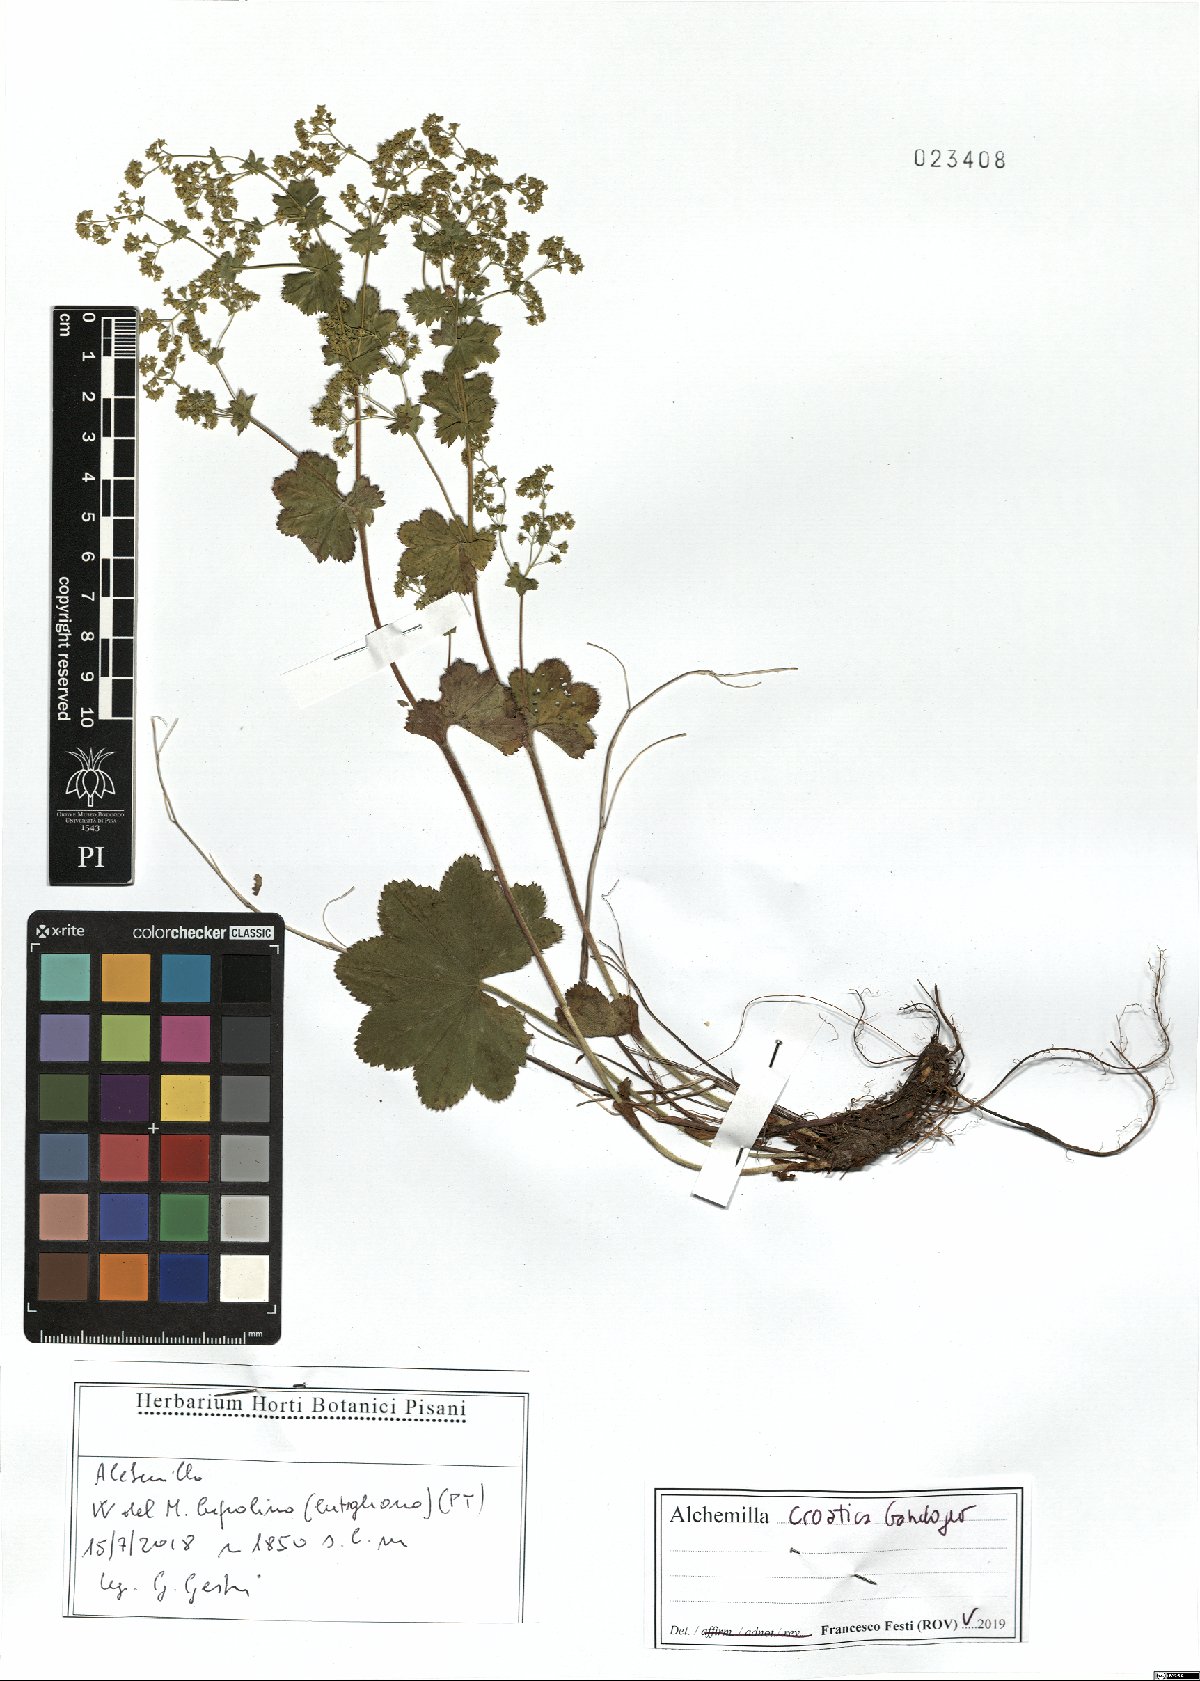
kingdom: Plantae
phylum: Tracheophyta
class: Magnoliopsida
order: Rosales
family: Rosaceae
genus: Alchemilla
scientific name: Alchemilla croatica
